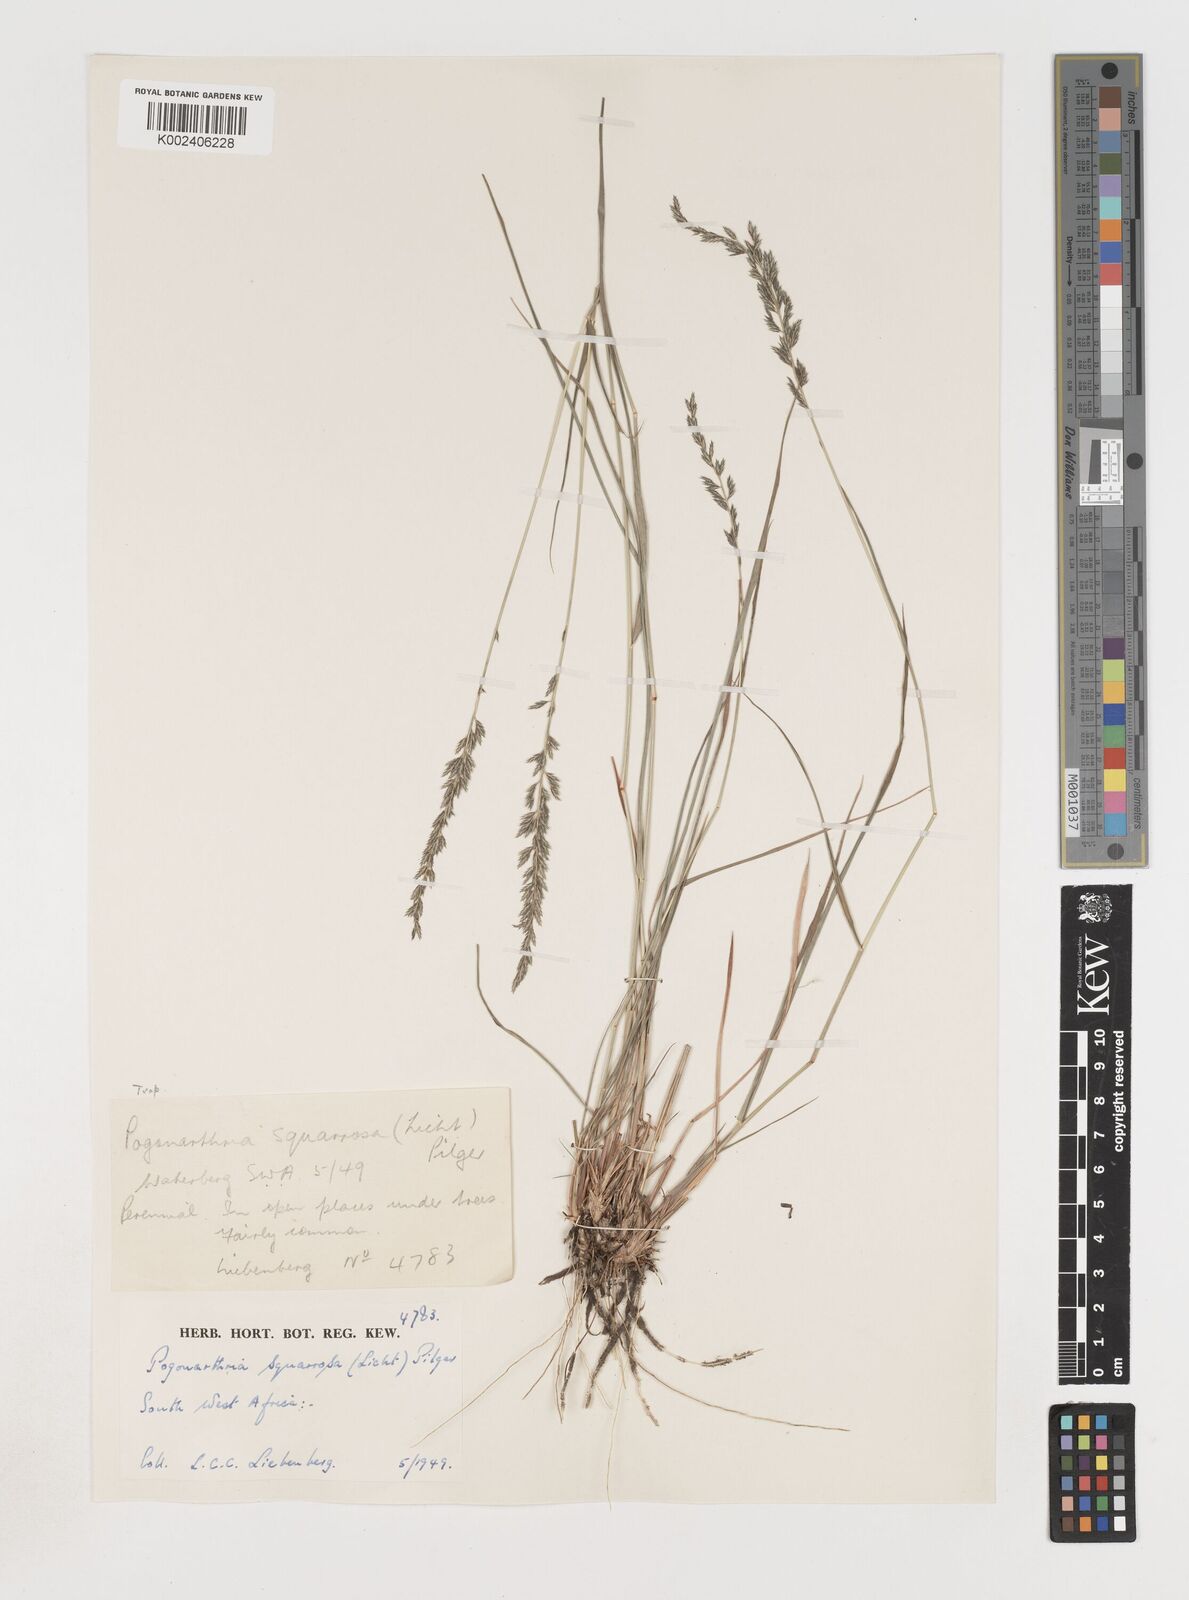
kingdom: Plantae
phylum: Tracheophyta
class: Liliopsida
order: Poales
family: Poaceae
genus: Pogonarthria
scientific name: Pogonarthria squarrosa
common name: Grass
